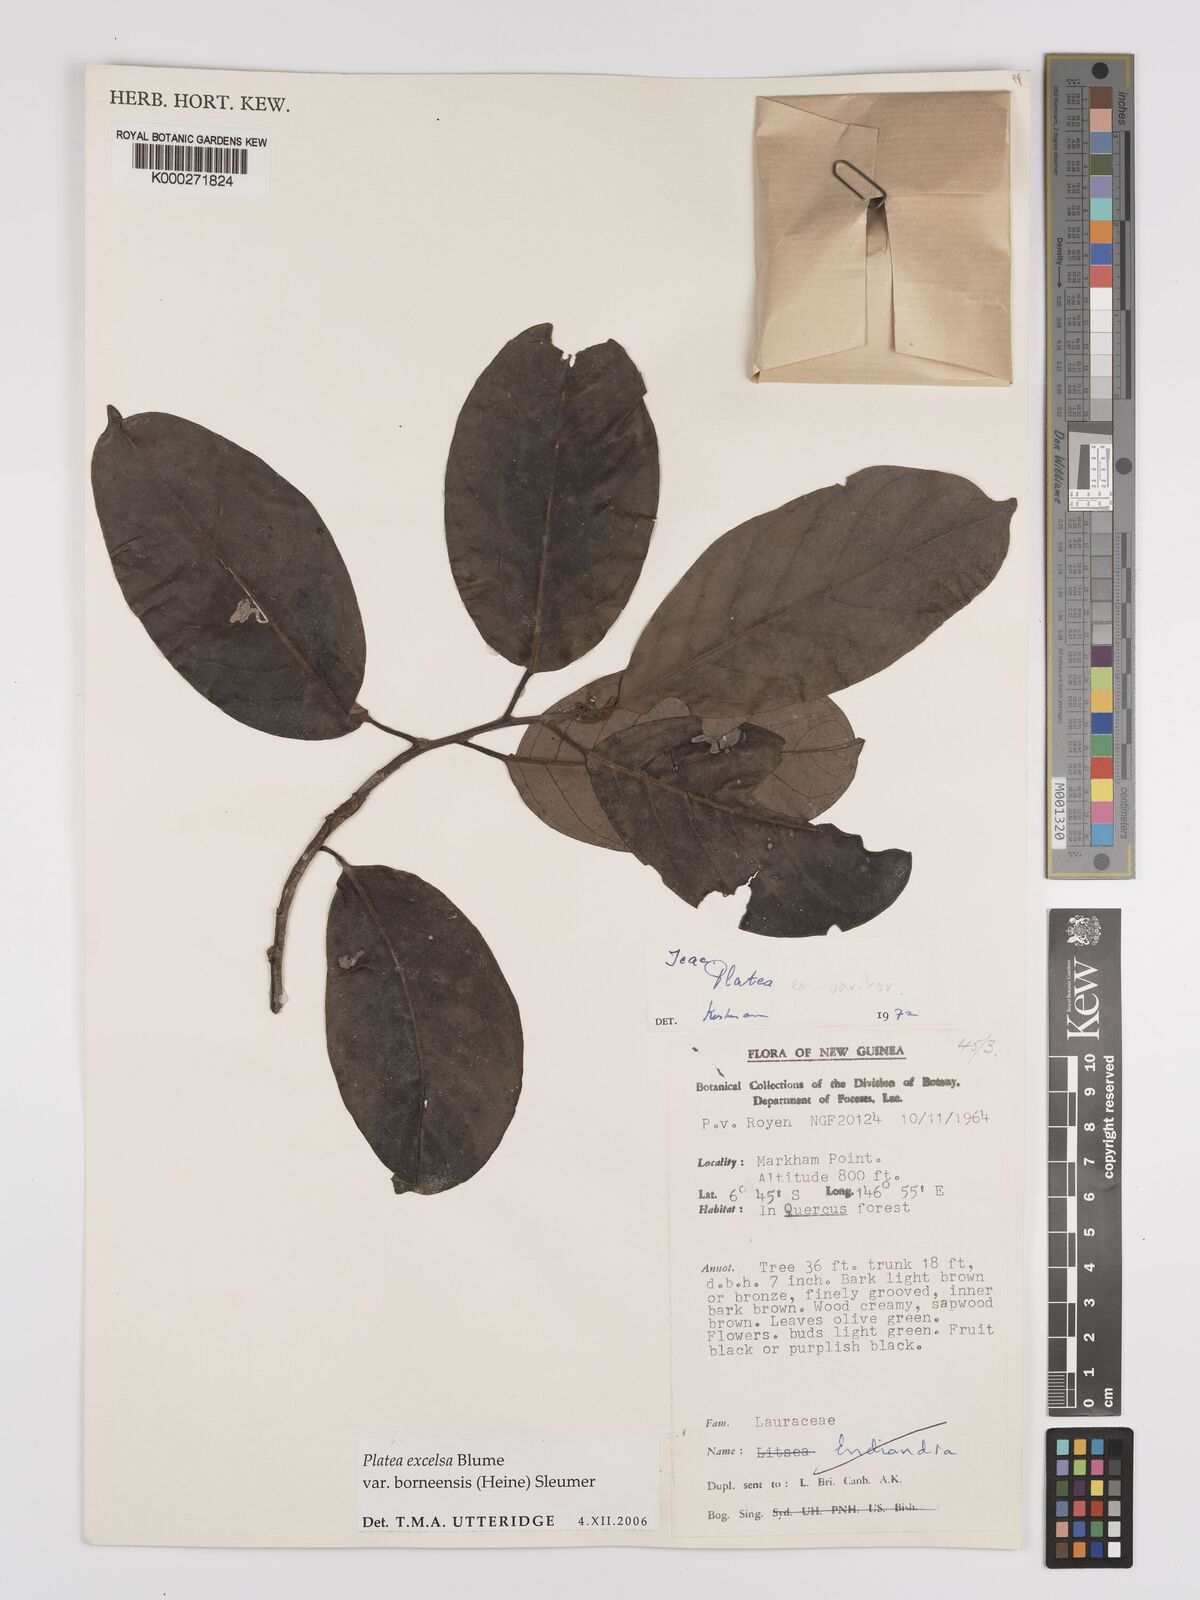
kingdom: Plantae
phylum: Tracheophyta
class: Magnoliopsida
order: Metteniusales
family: Metteniusaceae
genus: Platea
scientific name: Platea excelsa
